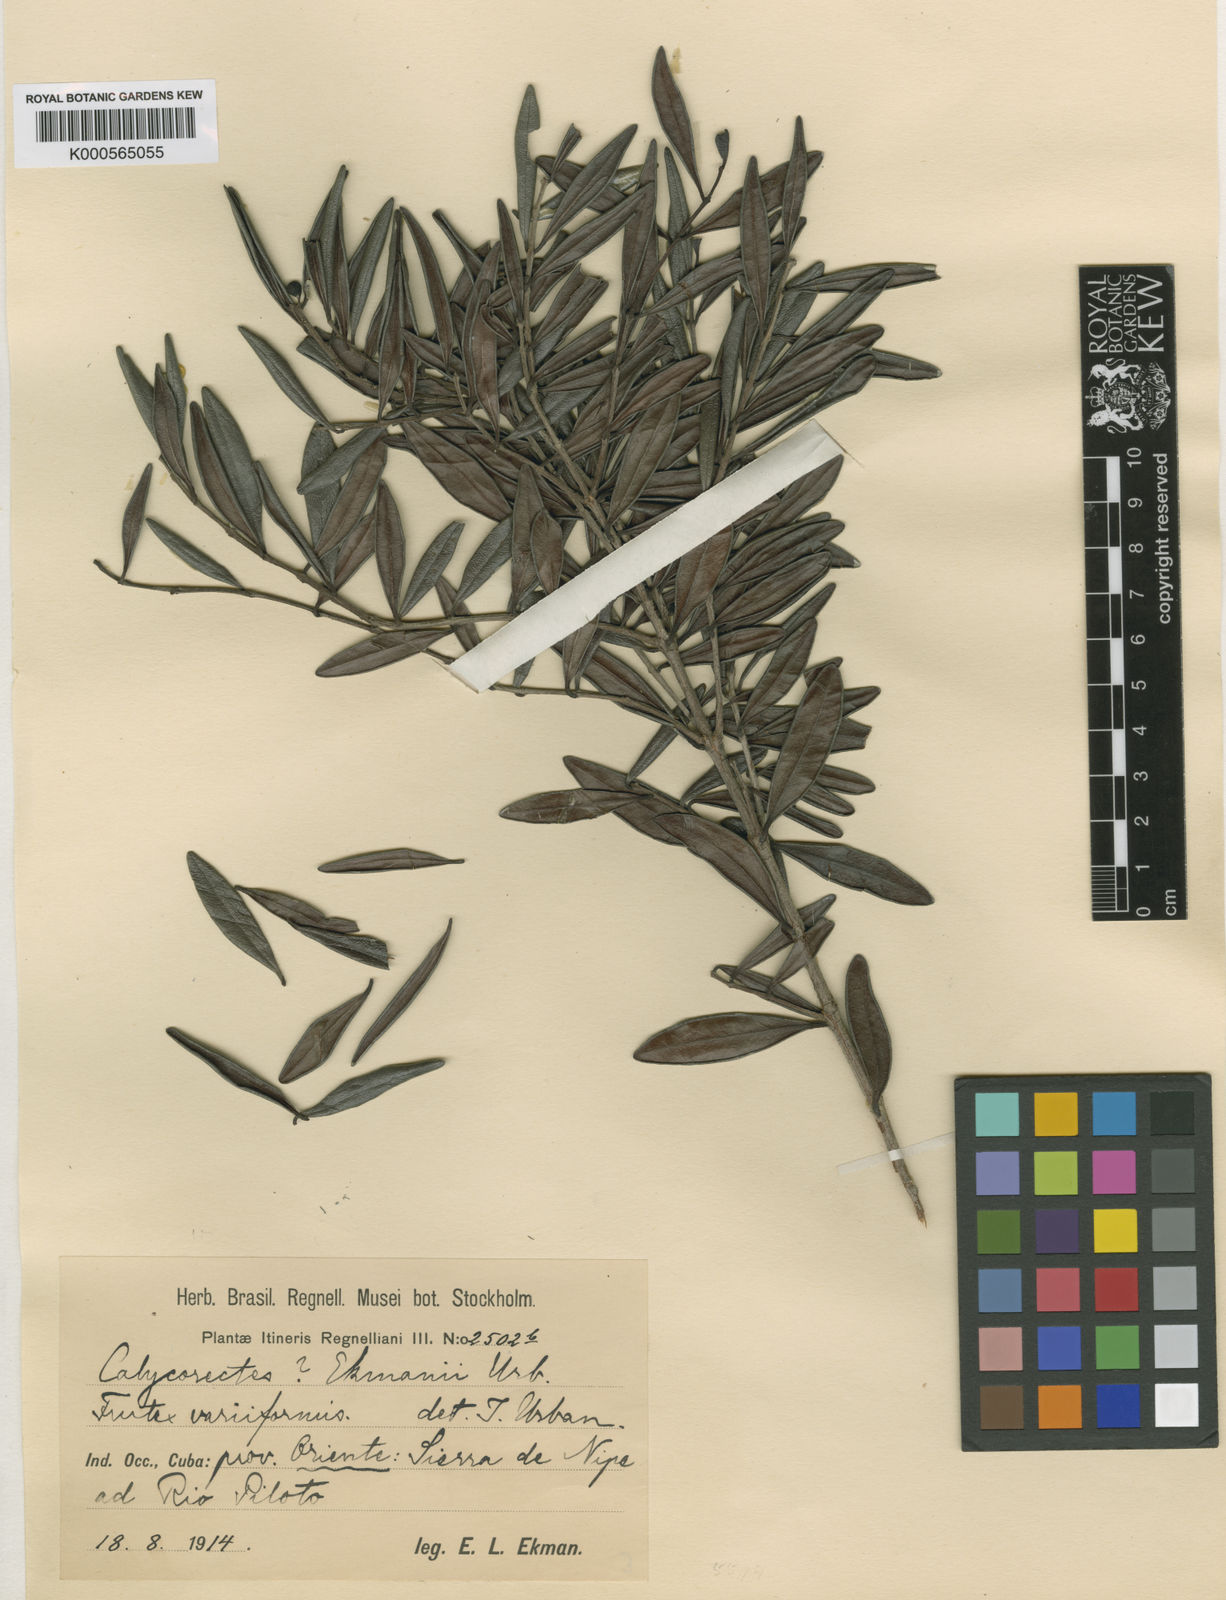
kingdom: Plantae
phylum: Tracheophyta
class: Magnoliopsida
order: Myrtales
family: Myrtaceae
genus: Eugenia
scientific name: Eugenia ekmanii
